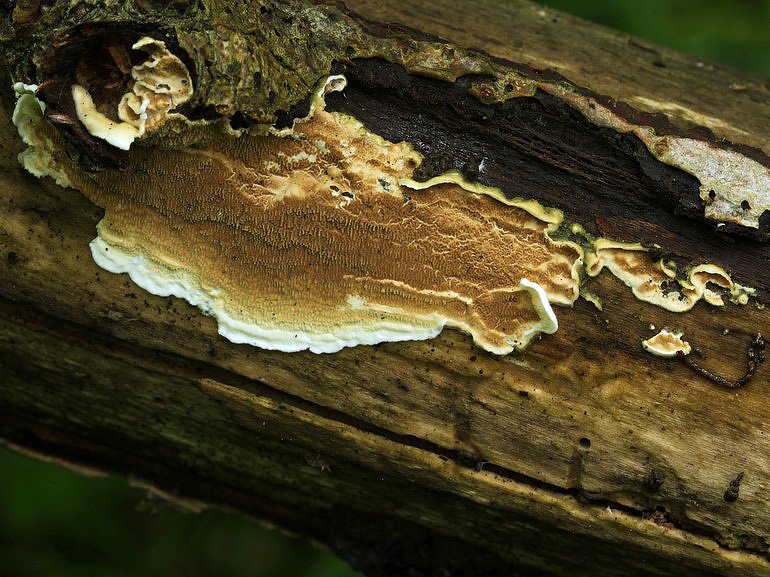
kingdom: Fungi
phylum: Basidiomycota
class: Agaricomycetes
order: Polyporales
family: Irpicaceae
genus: Byssomerulius
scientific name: Byssomerulius corium
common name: læder-åresvamp
